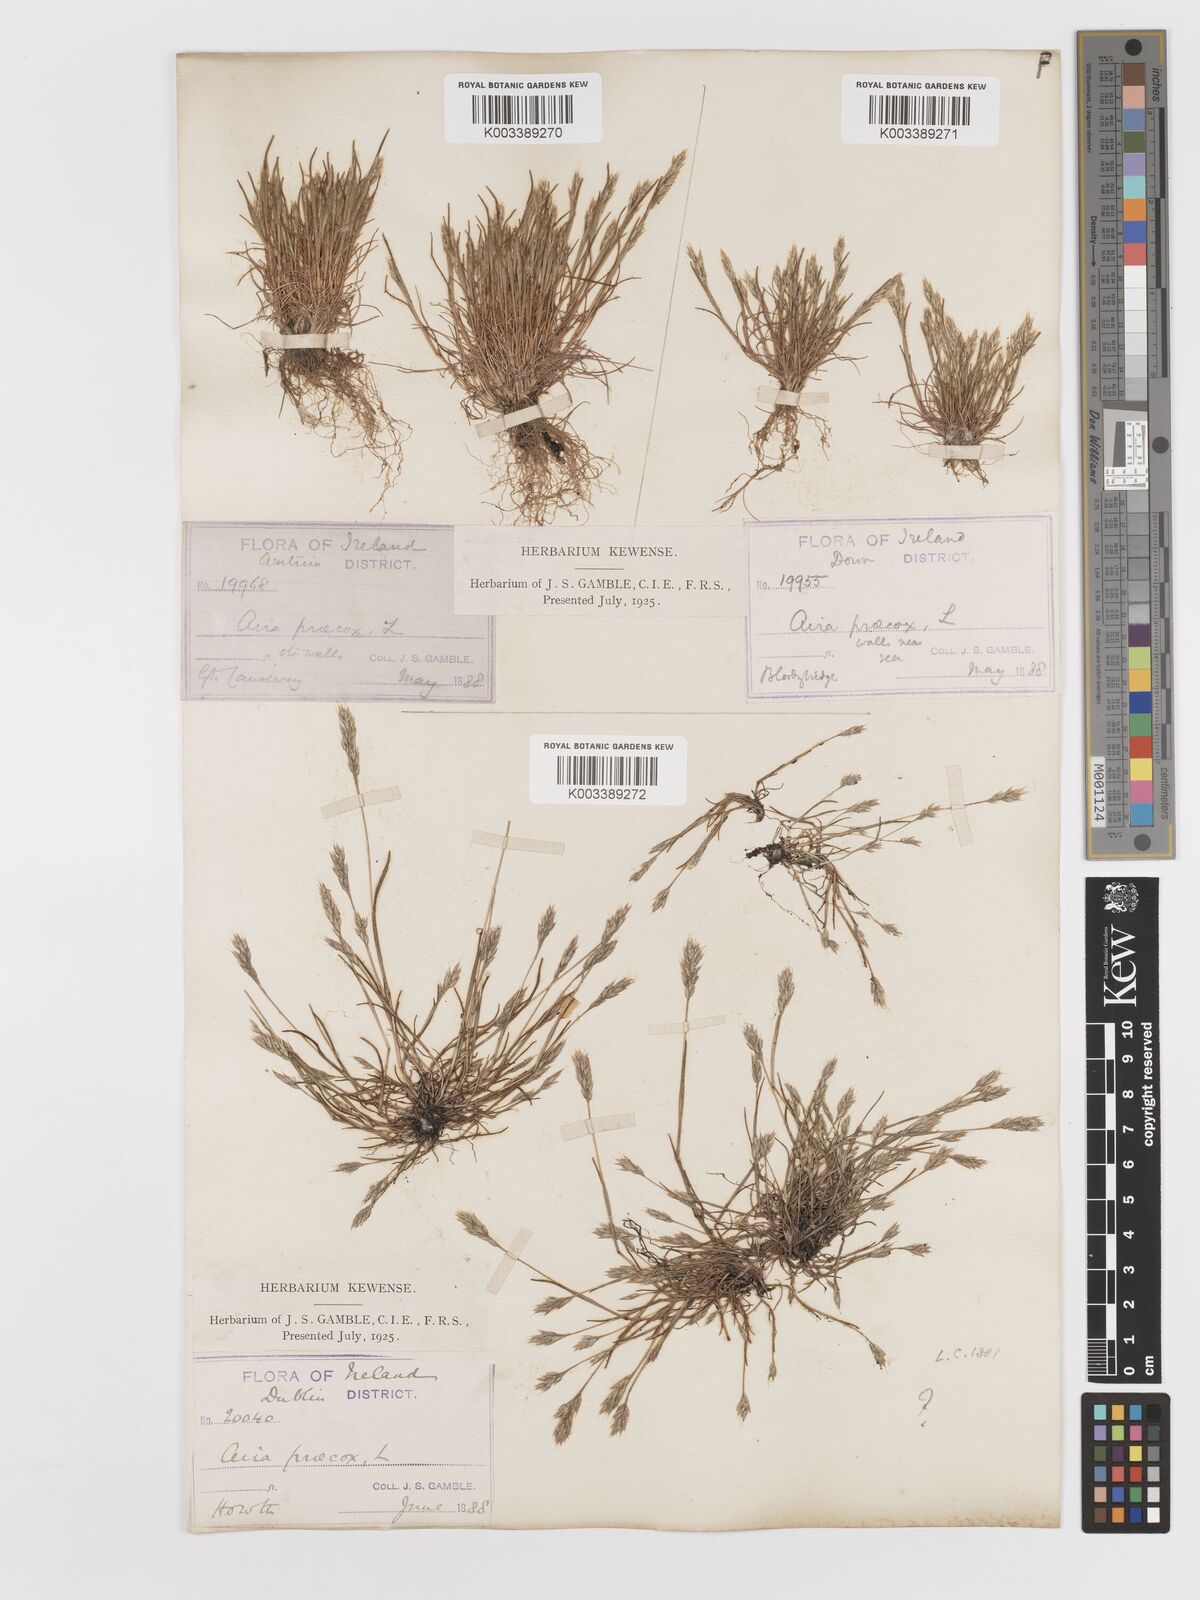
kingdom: Plantae
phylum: Tracheophyta
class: Liliopsida
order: Poales
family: Poaceae
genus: Aira
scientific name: Aira praecox
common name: Early hair-grass
